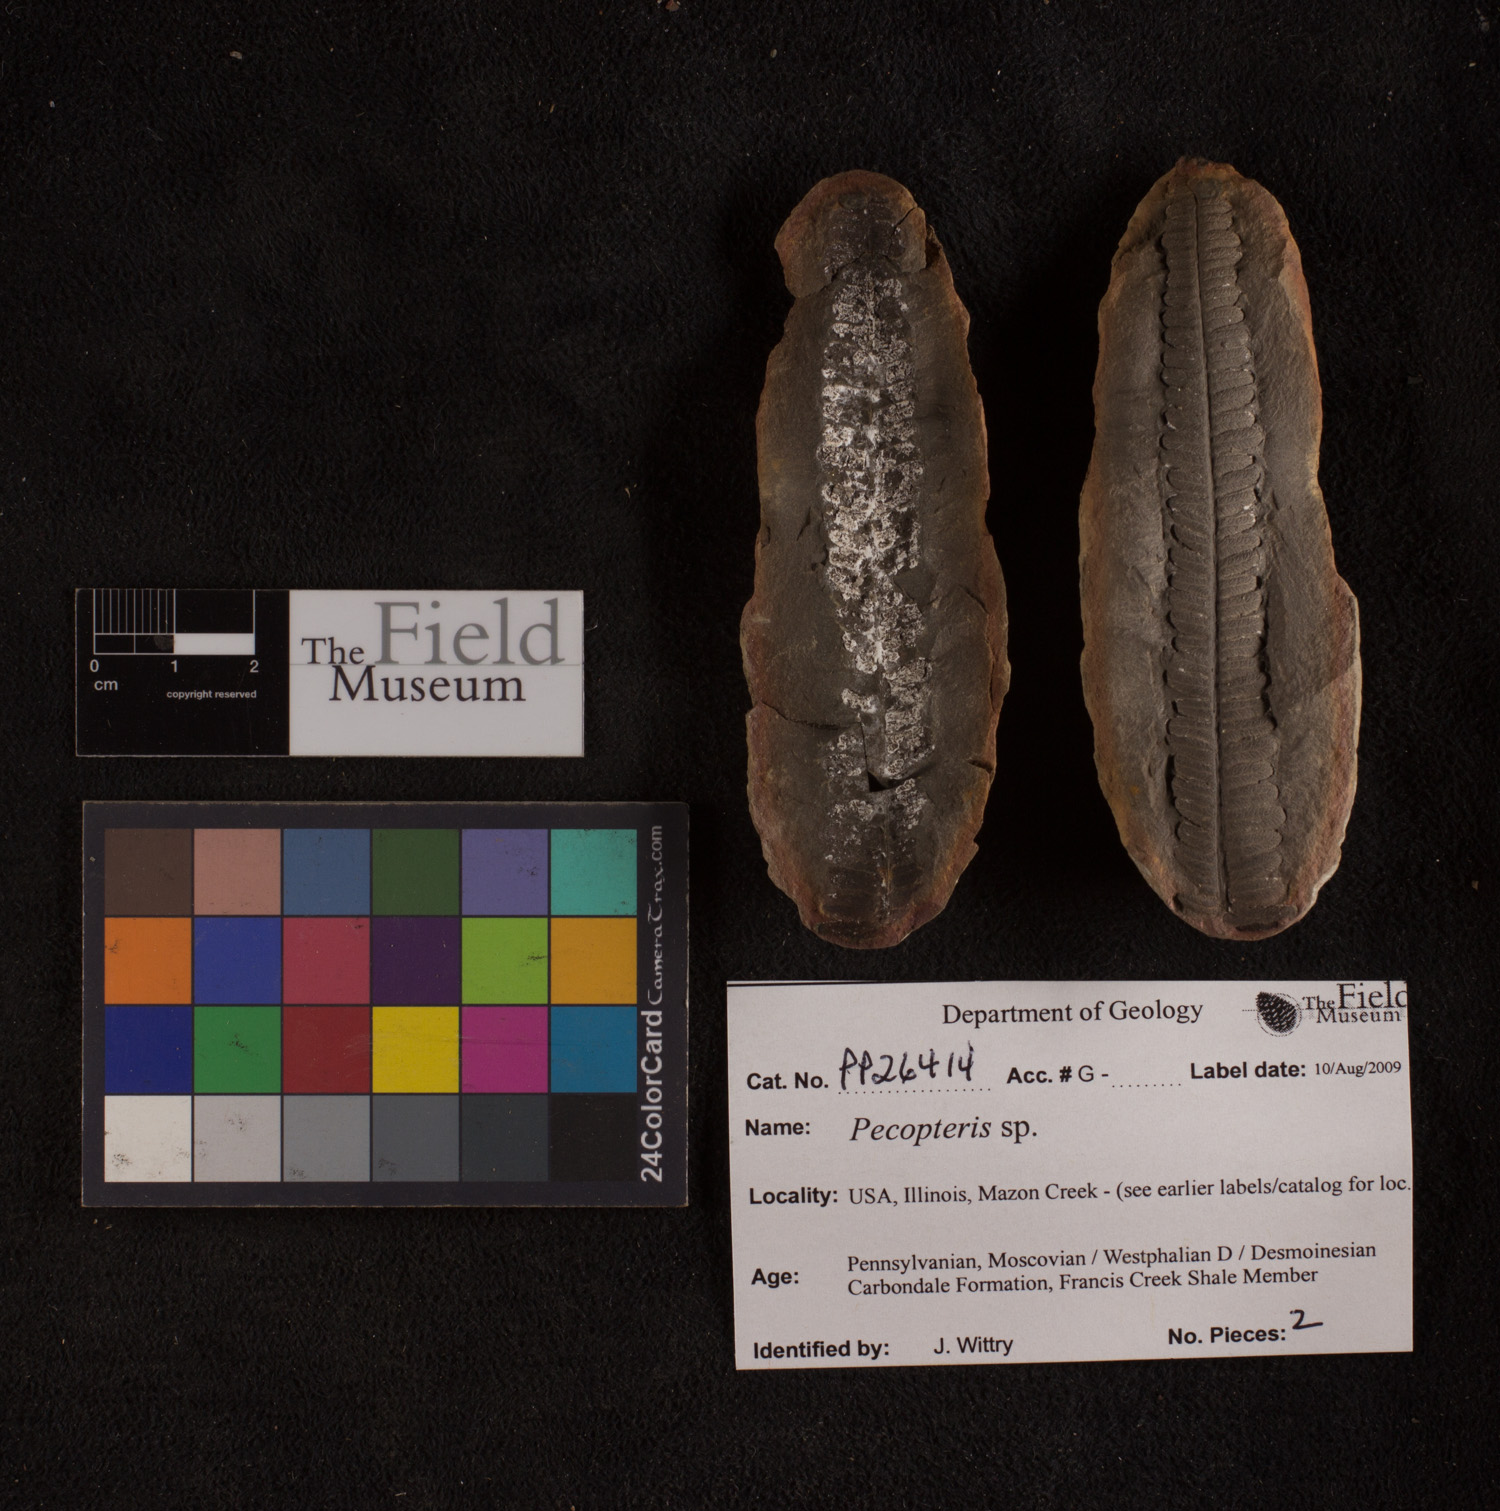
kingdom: Plantae
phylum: Tracheophyta
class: Polypodiopsida
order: Marattiales
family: Asterothecaceae
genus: Pecopteris
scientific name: Pecopteris
